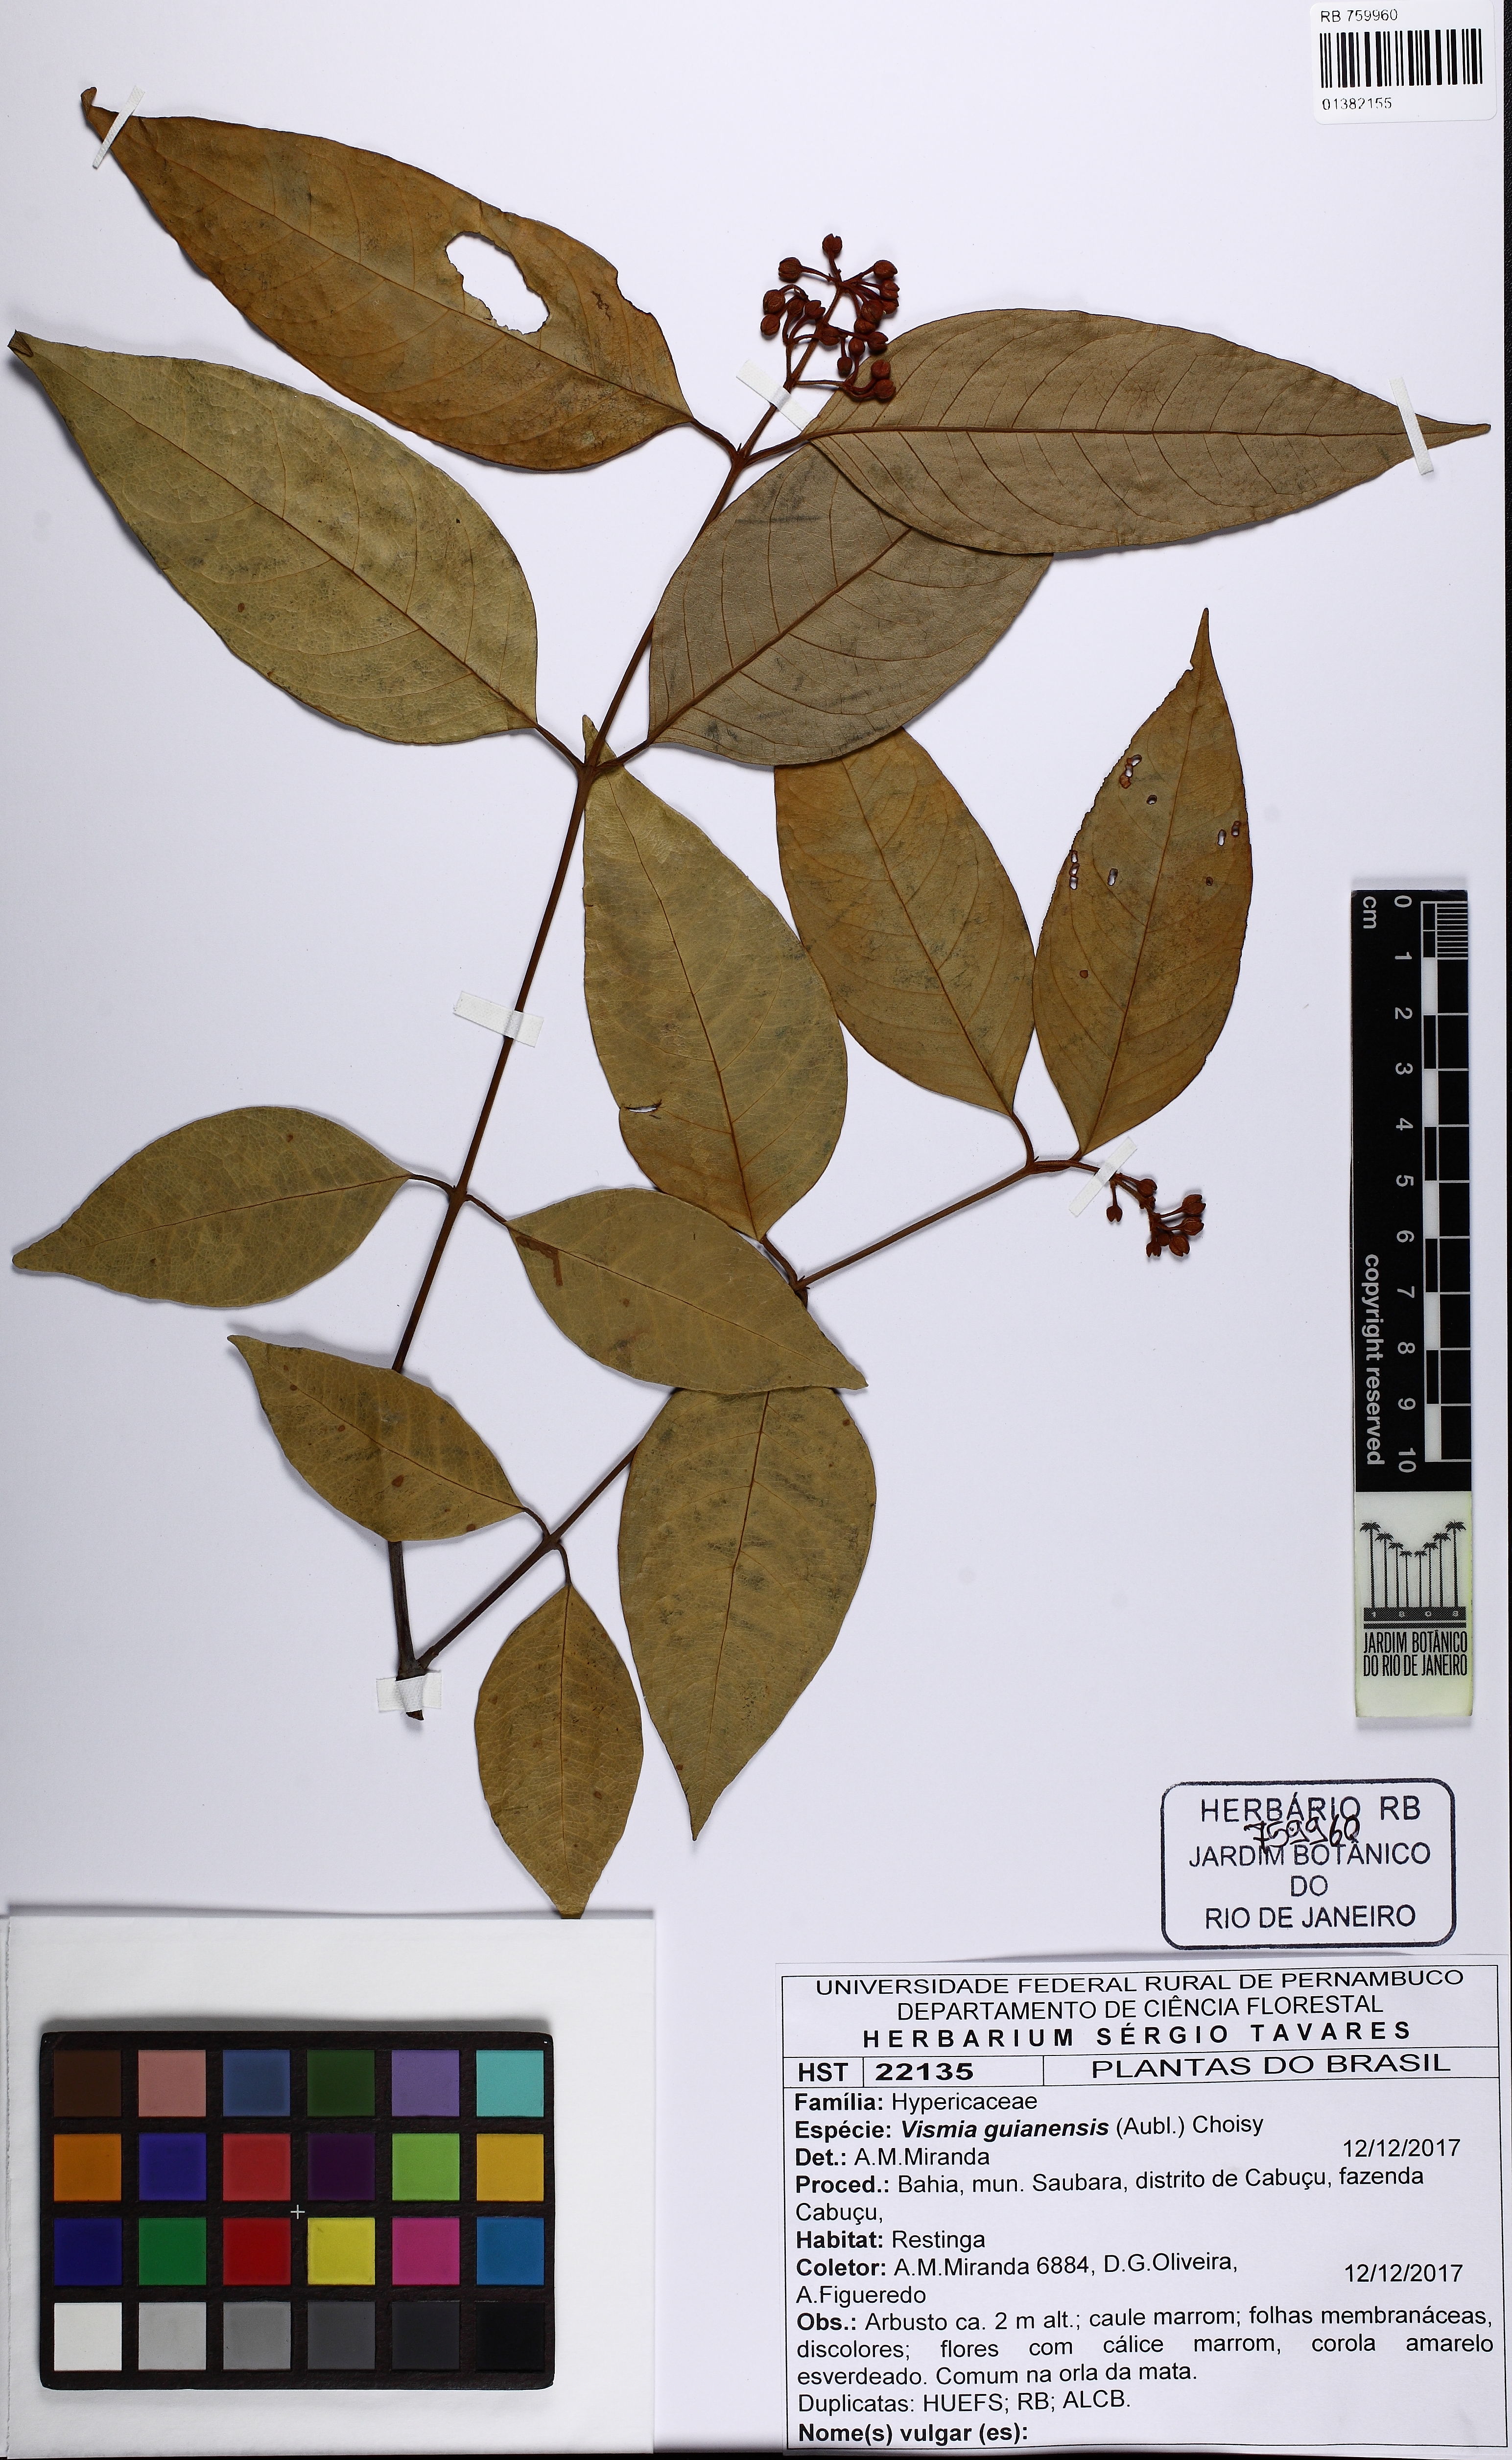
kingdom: Plantae
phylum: Tracheophyta
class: Magnoliopsida
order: Malpighiales
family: Hypericaceae
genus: Vismia
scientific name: Vismia guianensis
